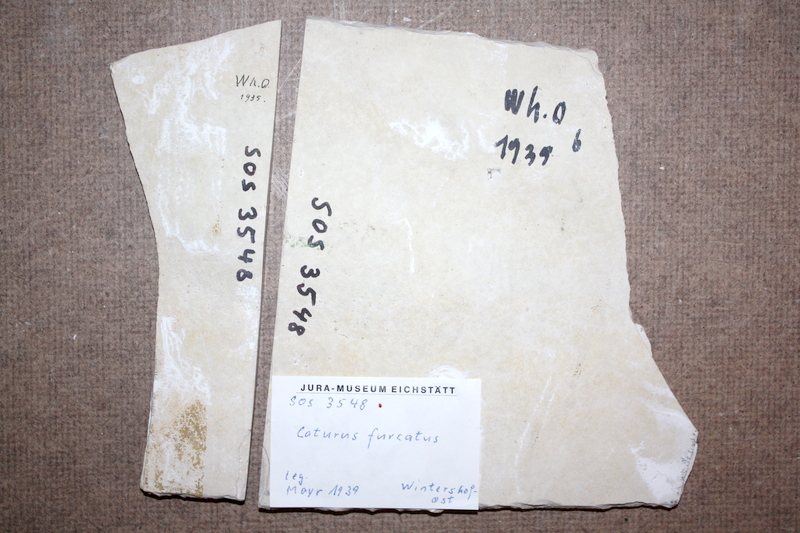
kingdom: Animalia
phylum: Chordata
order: Amiiformes
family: Caturidae
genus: Caturus
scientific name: Caturus furcatus
